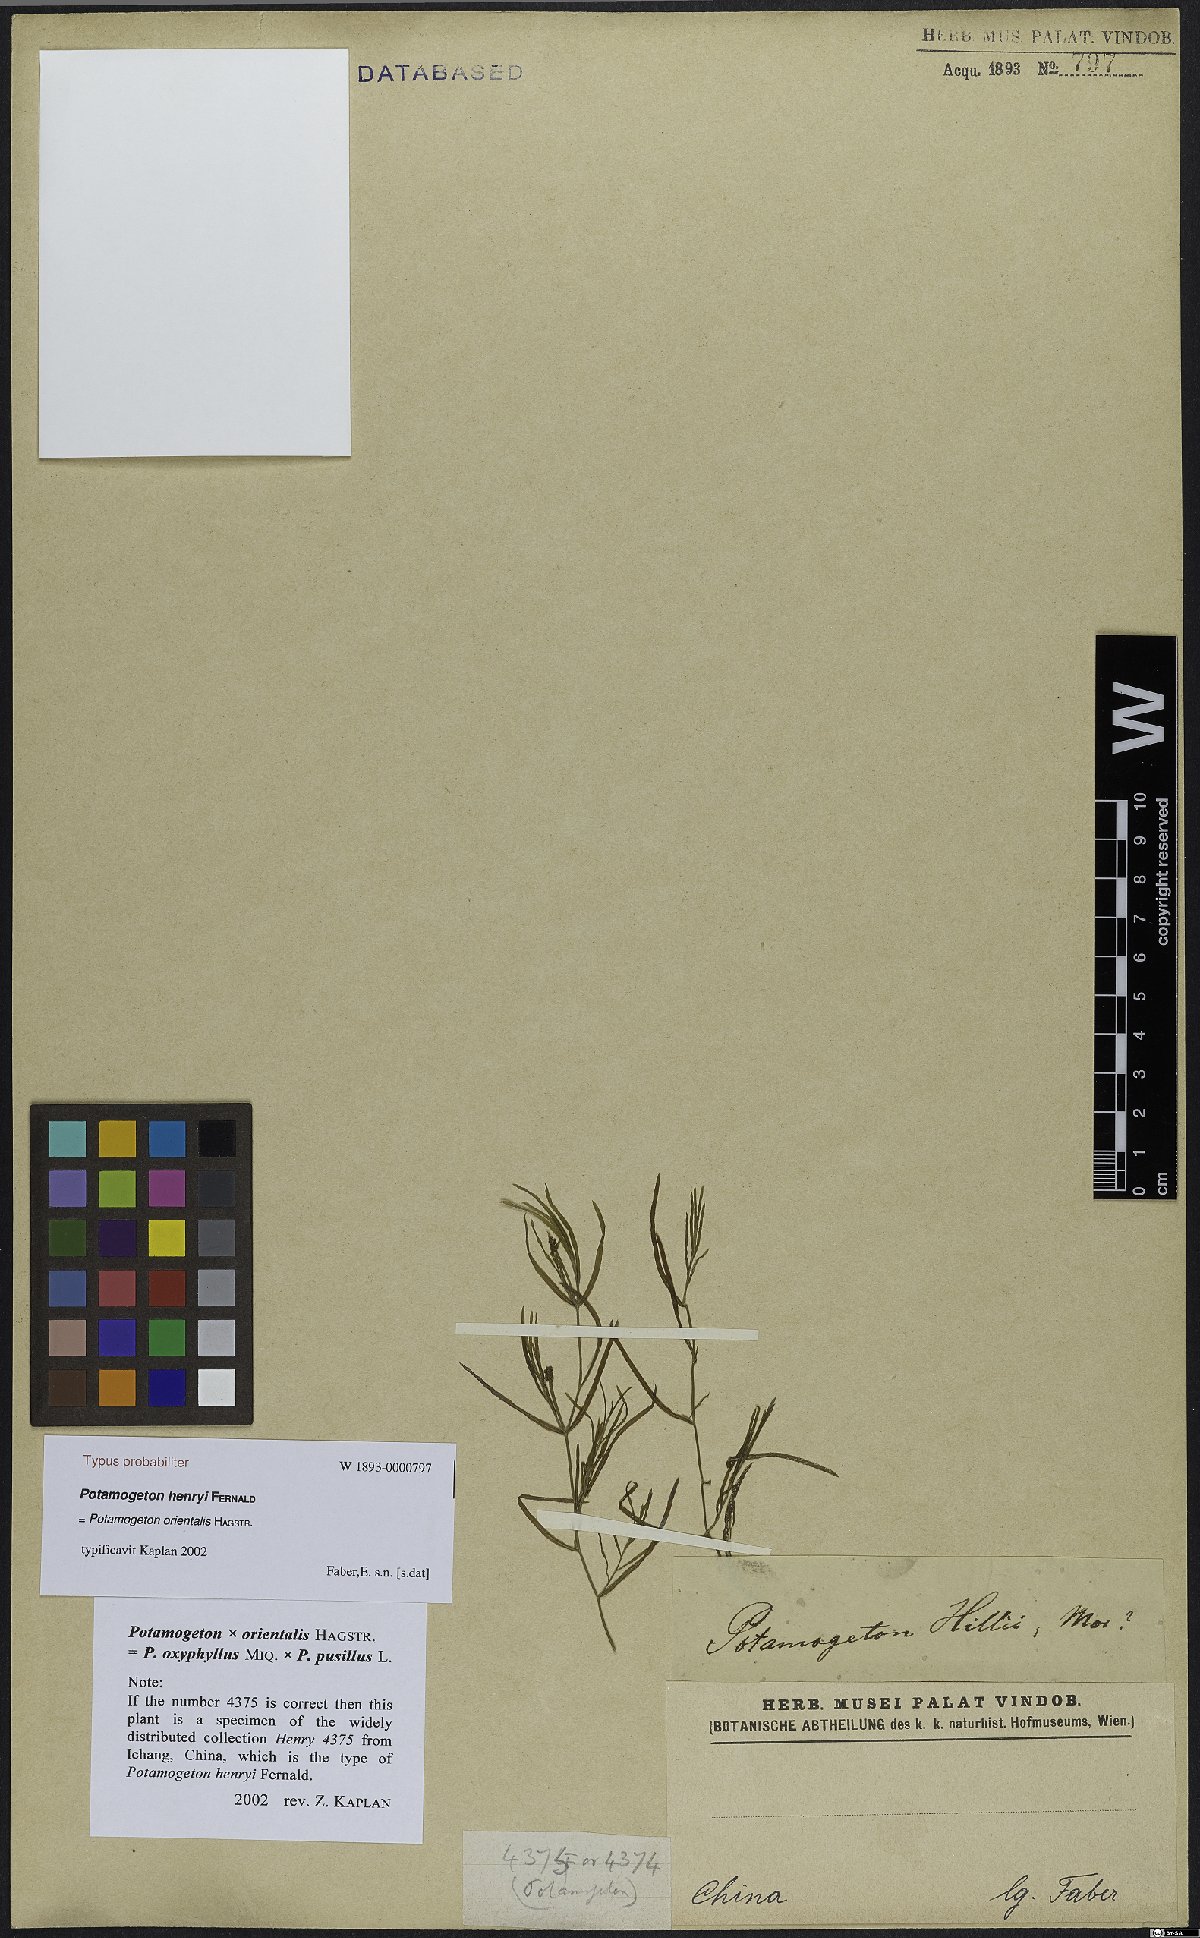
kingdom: Plantae
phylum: Tracheophyta
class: Liliopsida
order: Alismatales
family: Potamogetonaceae
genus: Potamogeton
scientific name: Potamogeton orientalis
